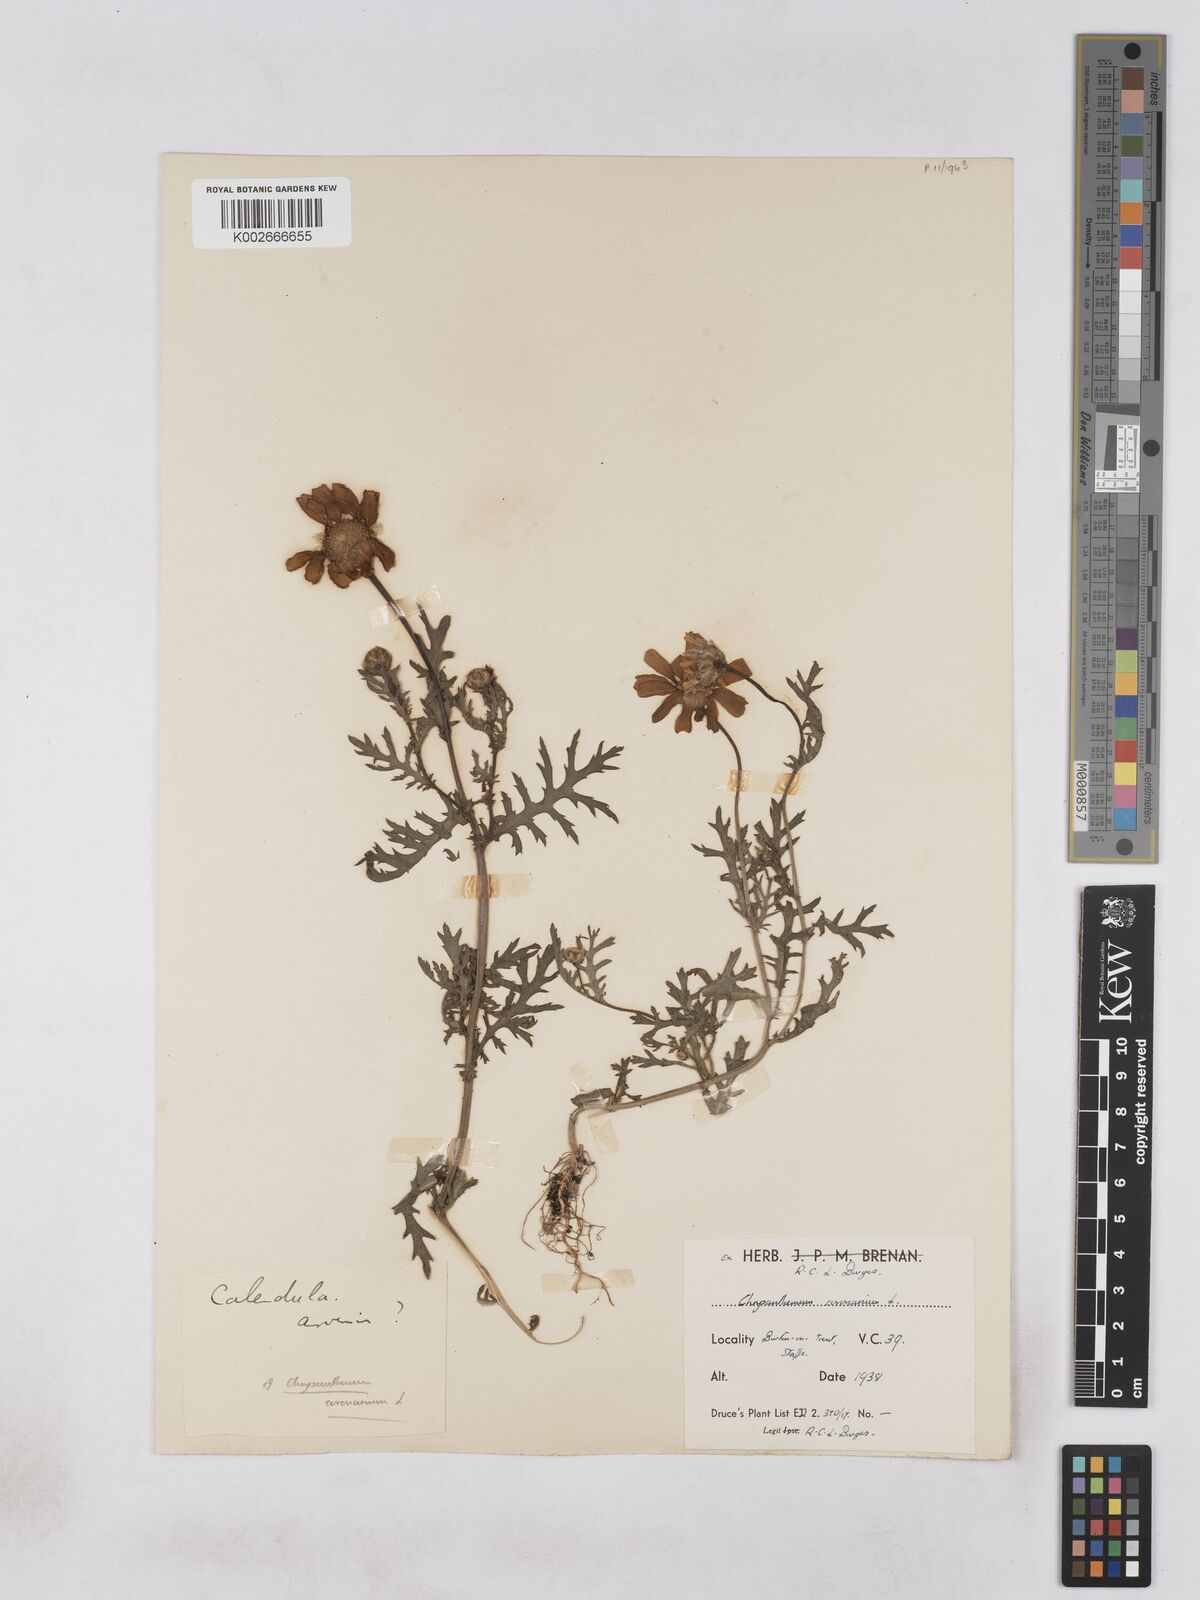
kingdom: Plantae
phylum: Tracheophyta
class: Magnoliopsida
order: Asterales
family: Asteraceae
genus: Glebionis
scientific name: Glebionis coronaria
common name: Crowndaisy
